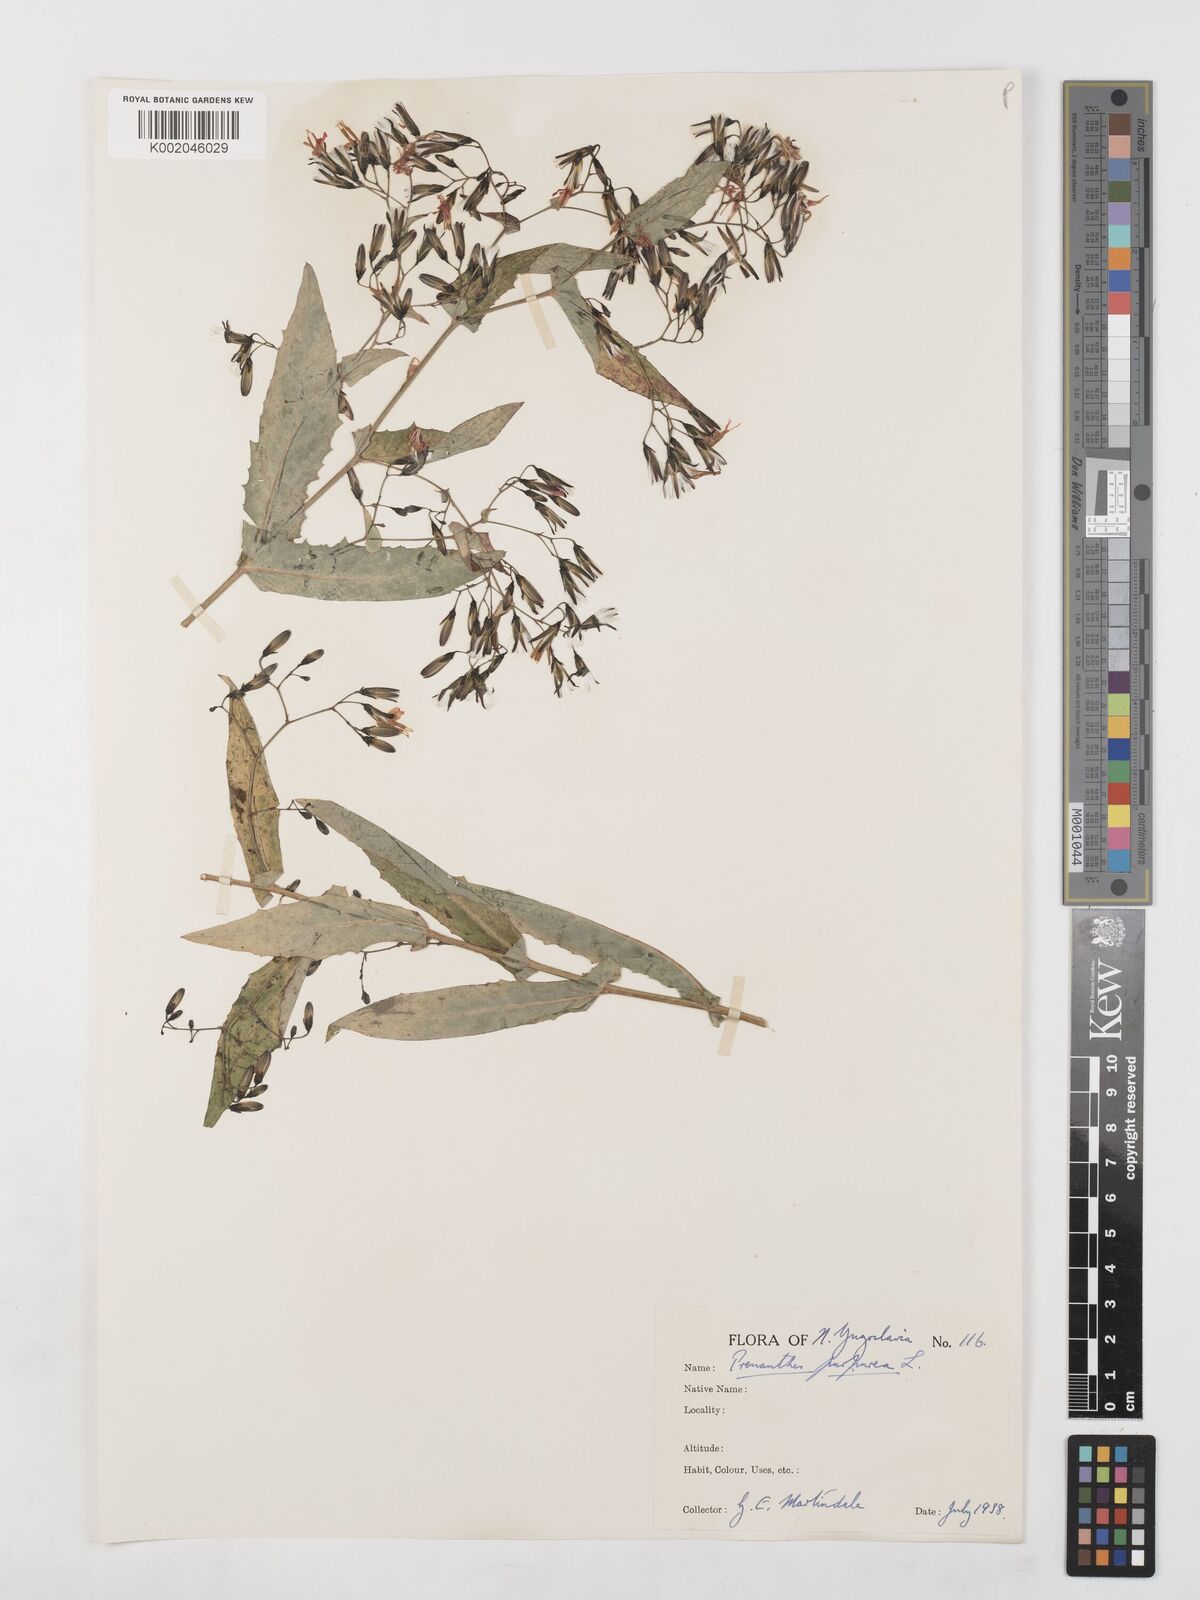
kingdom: Plantae
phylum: Tracheophyta
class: Magnoliopsida
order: Asterales
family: Asteraceae
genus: Prenanthes
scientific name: Prenanthes purpurea
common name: Purple lettuce
